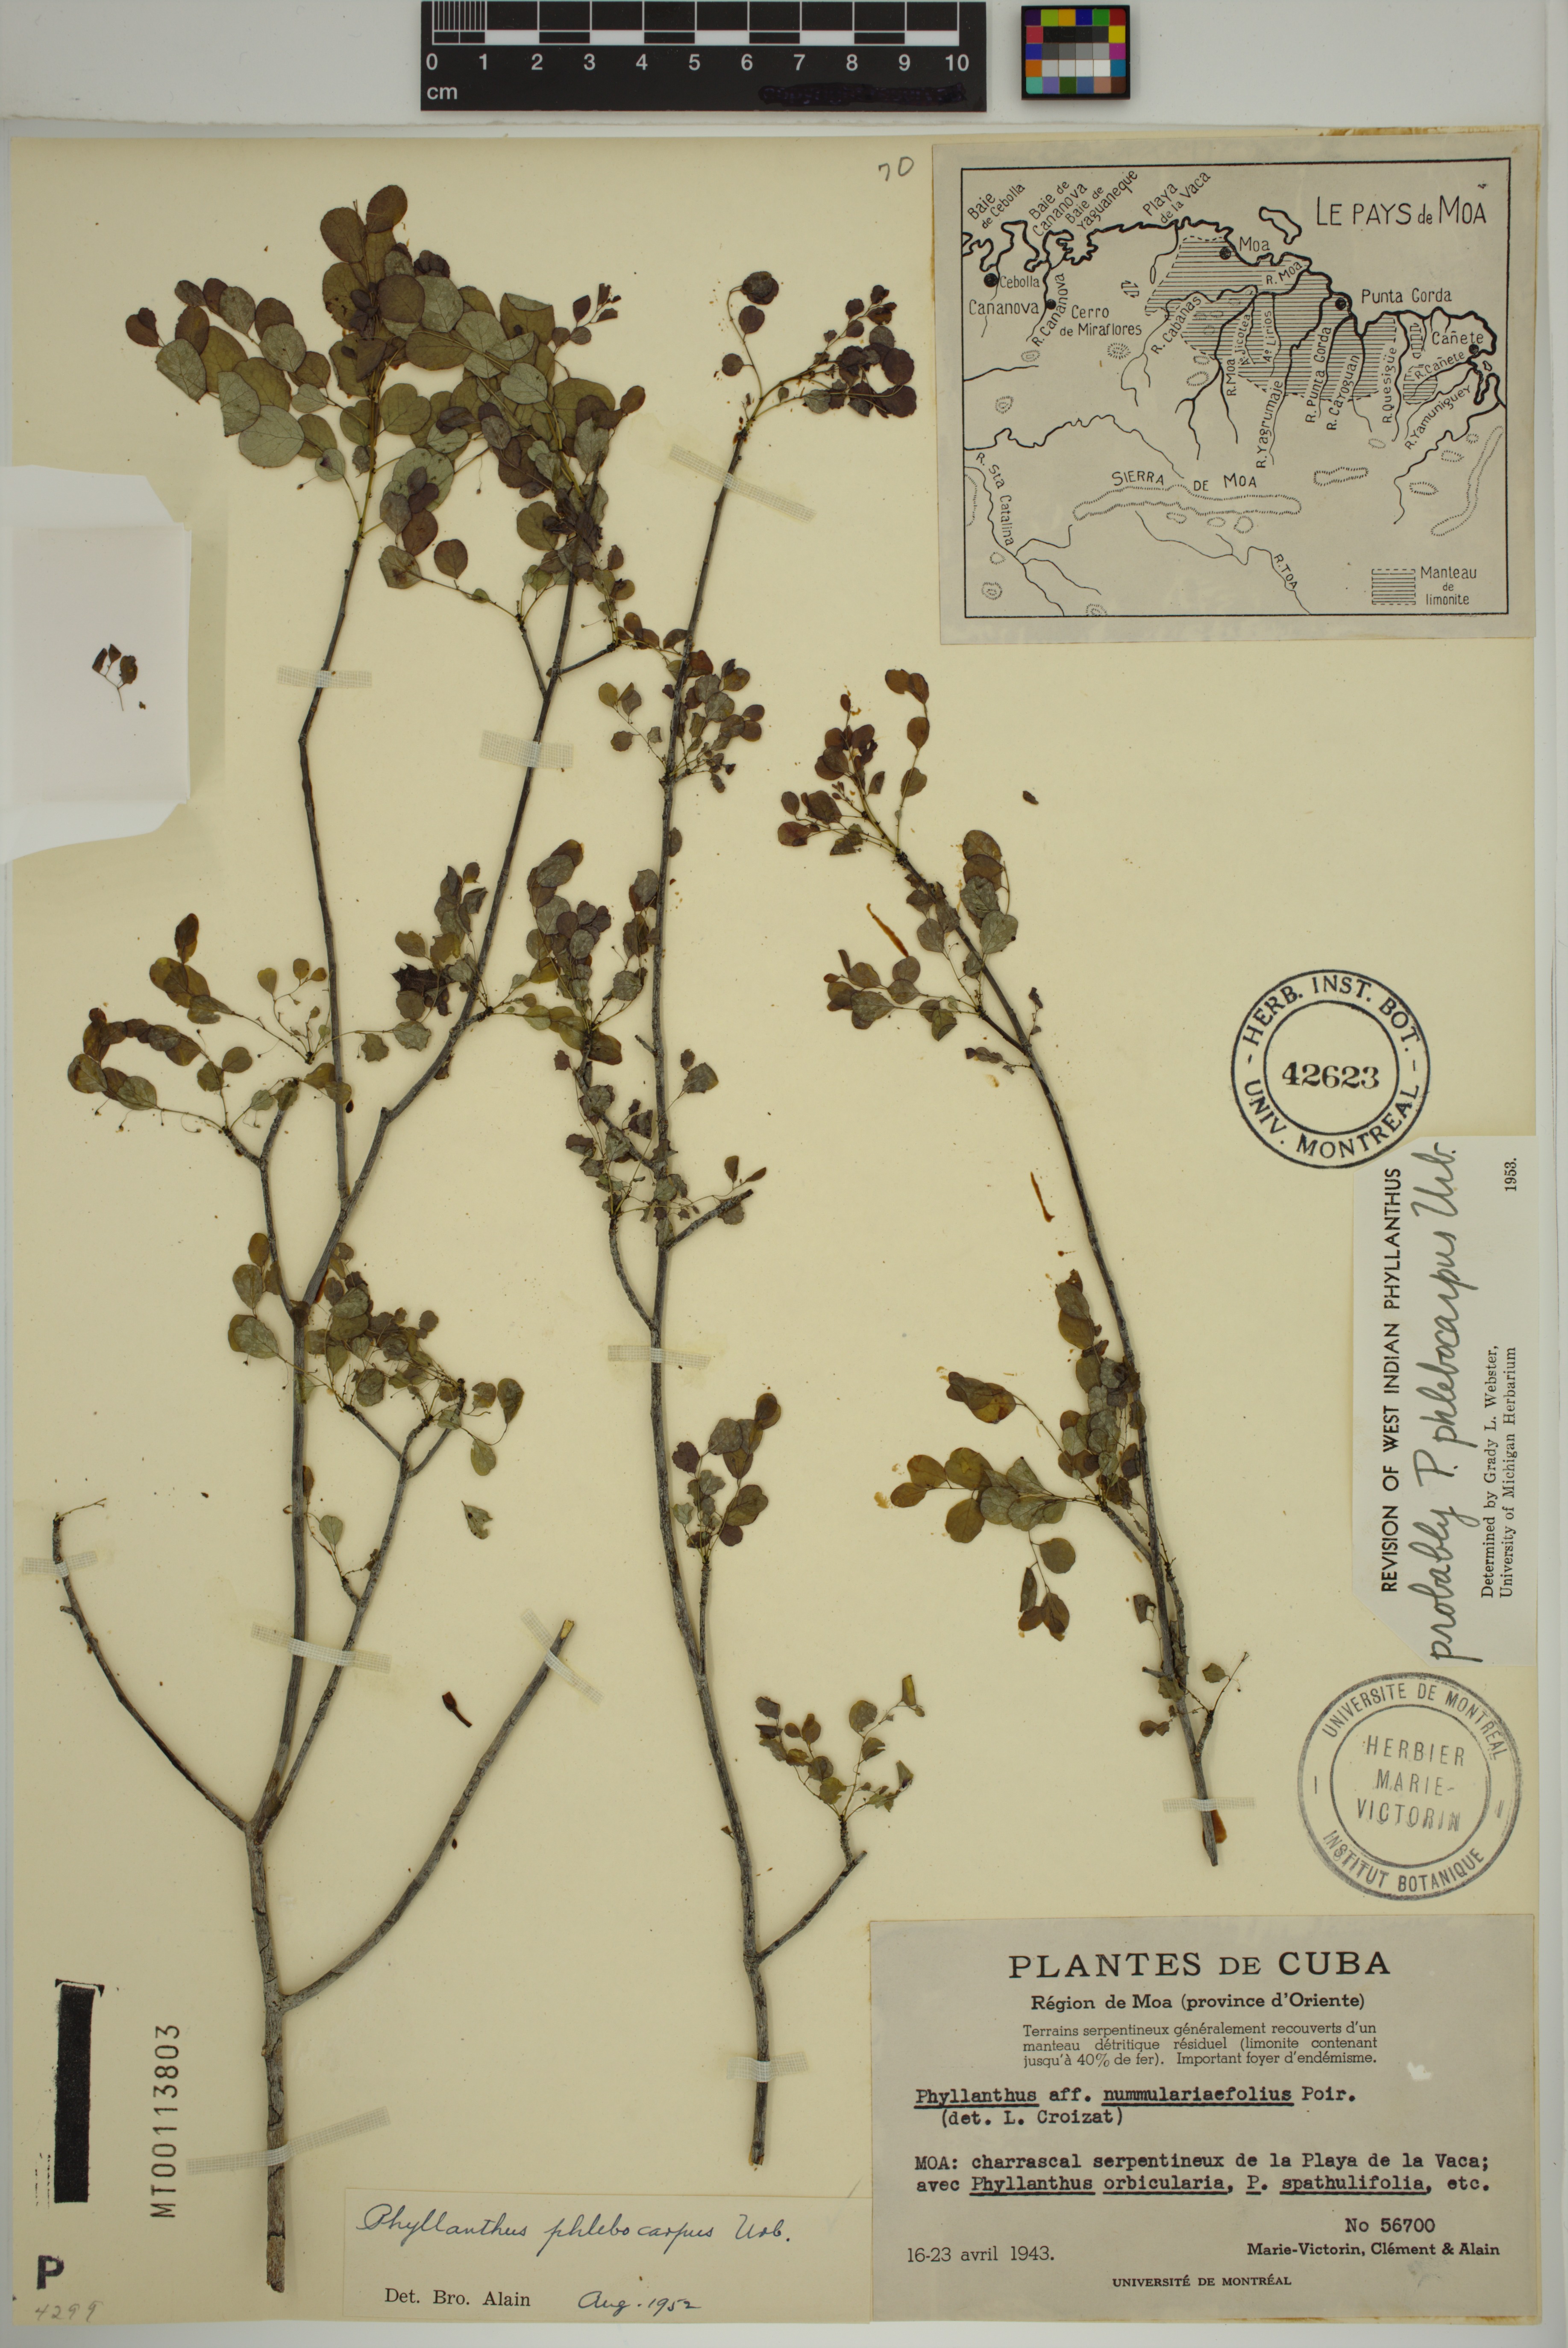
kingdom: Plantae
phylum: Tracheophyta
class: Magnoliopsida
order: Malpighiales
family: Phyllanthaceae
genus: Phyllanthus
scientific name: Phyllanthus phlebocarpus
